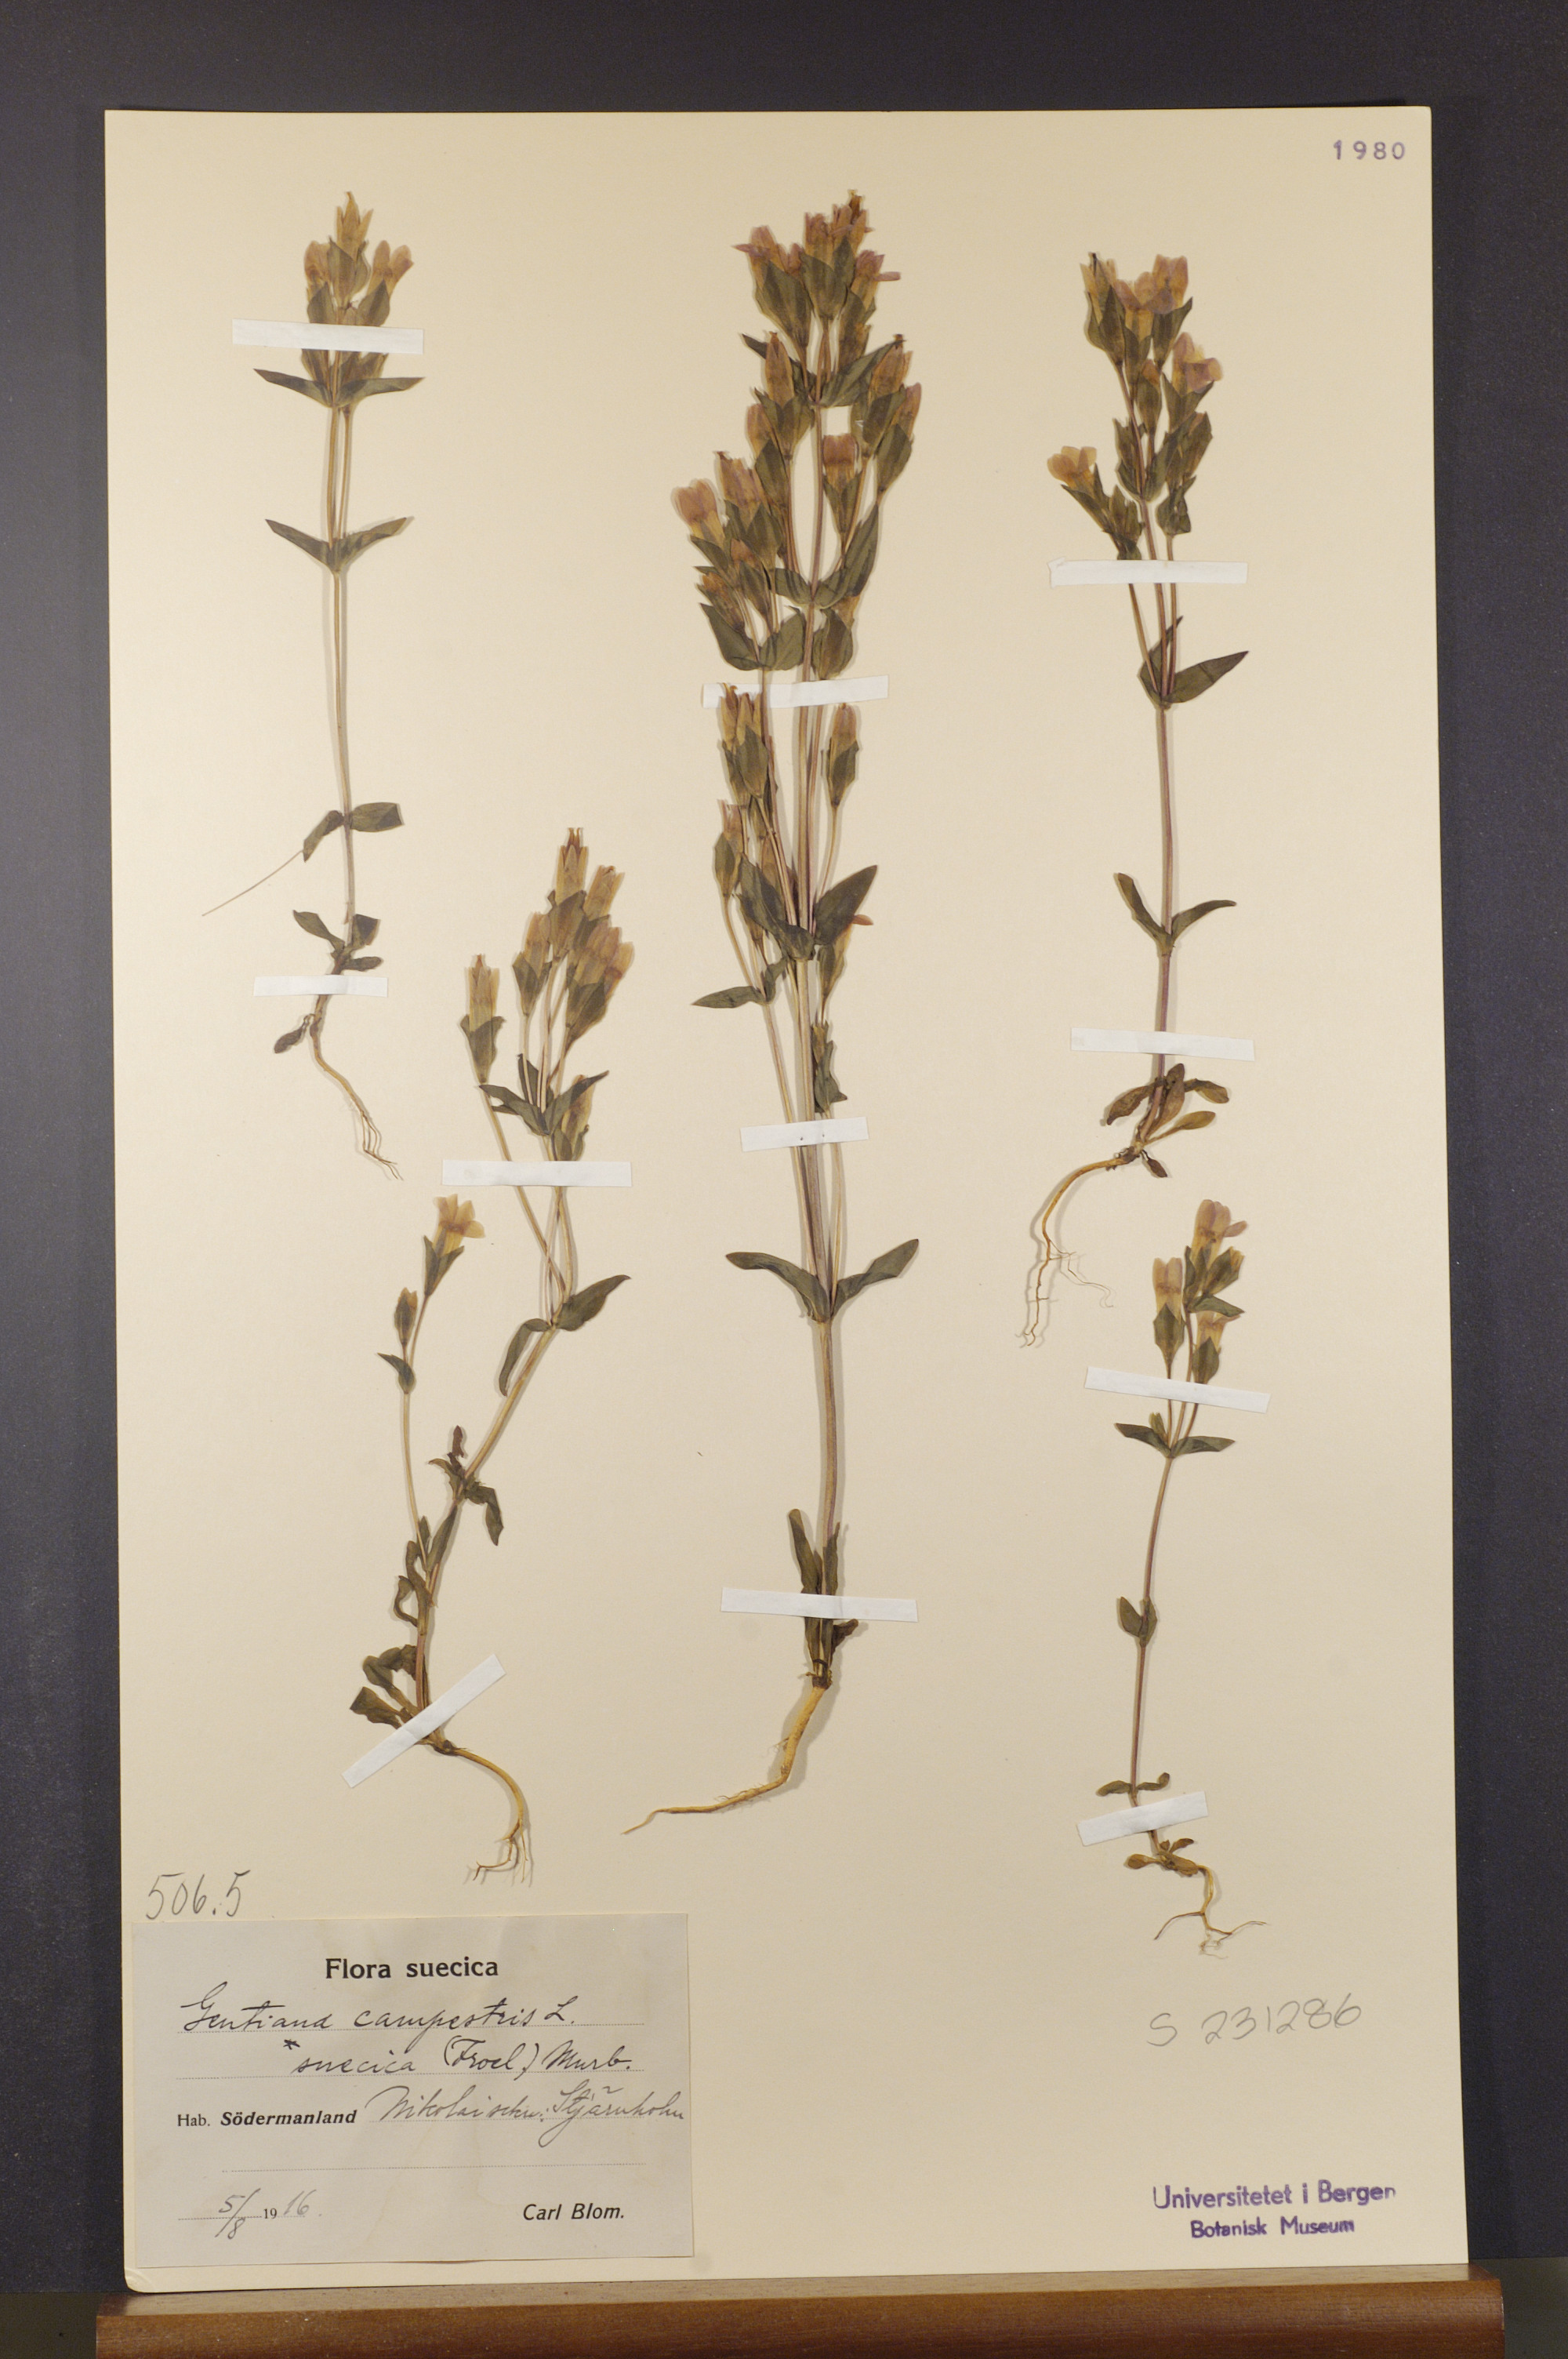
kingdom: Plantae
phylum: Tracheophyta
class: Magnoliopsida
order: Gentianales
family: Gentianaceae
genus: Gentianella
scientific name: Gentianella campestris
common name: Field gentian
